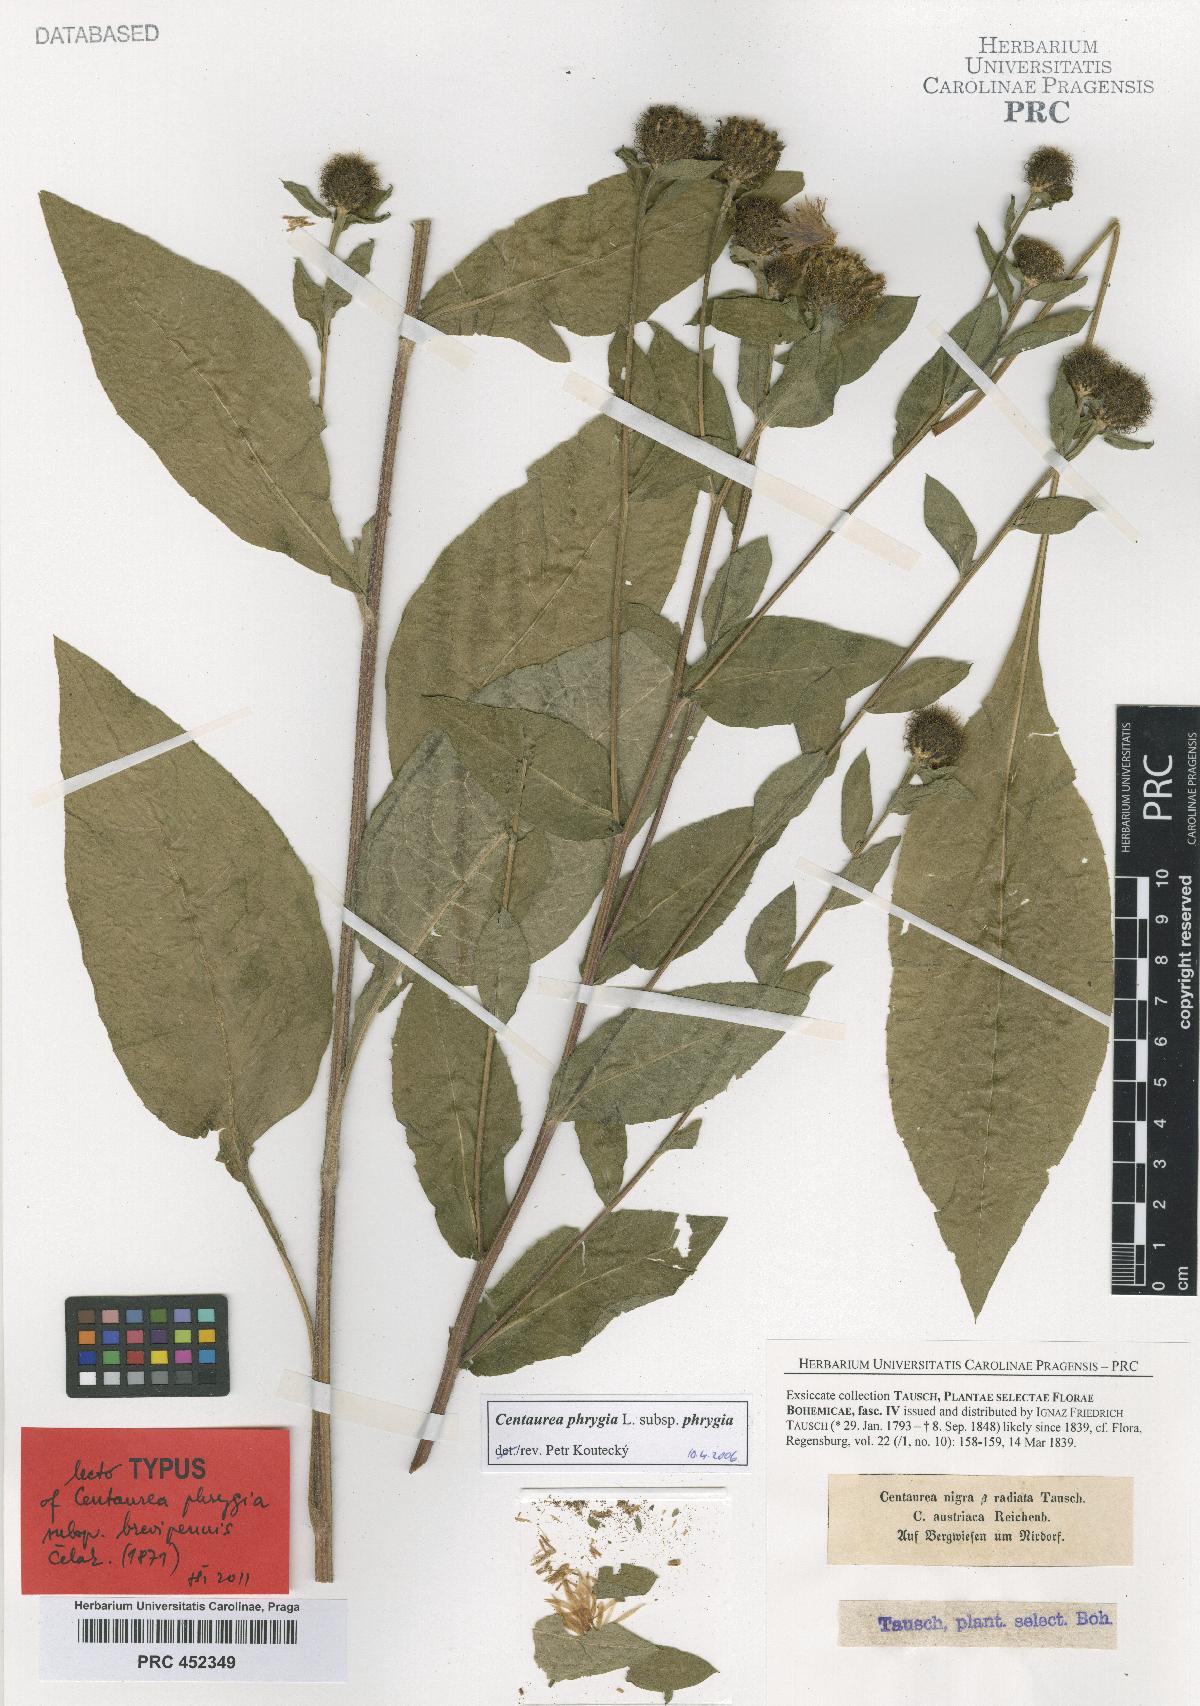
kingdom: Plantae
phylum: Tracheophyta
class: Magnoliopsida
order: Asterales
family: Asteraceae
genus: Centaurea
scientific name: Centaurea phrygia
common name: Wig knapweed
